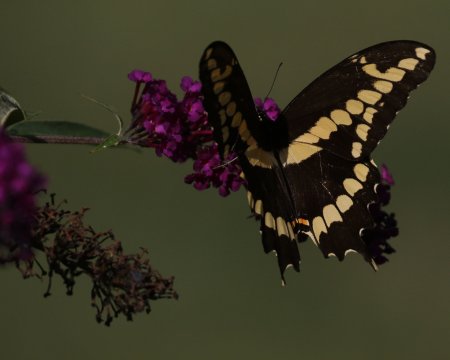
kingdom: Animalia
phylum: Arthropoda
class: Insecta
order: Lepidoptera
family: Papilionidae
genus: Papilio
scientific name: Papilio cresphontes
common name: Eastern Giant Swallowtail
